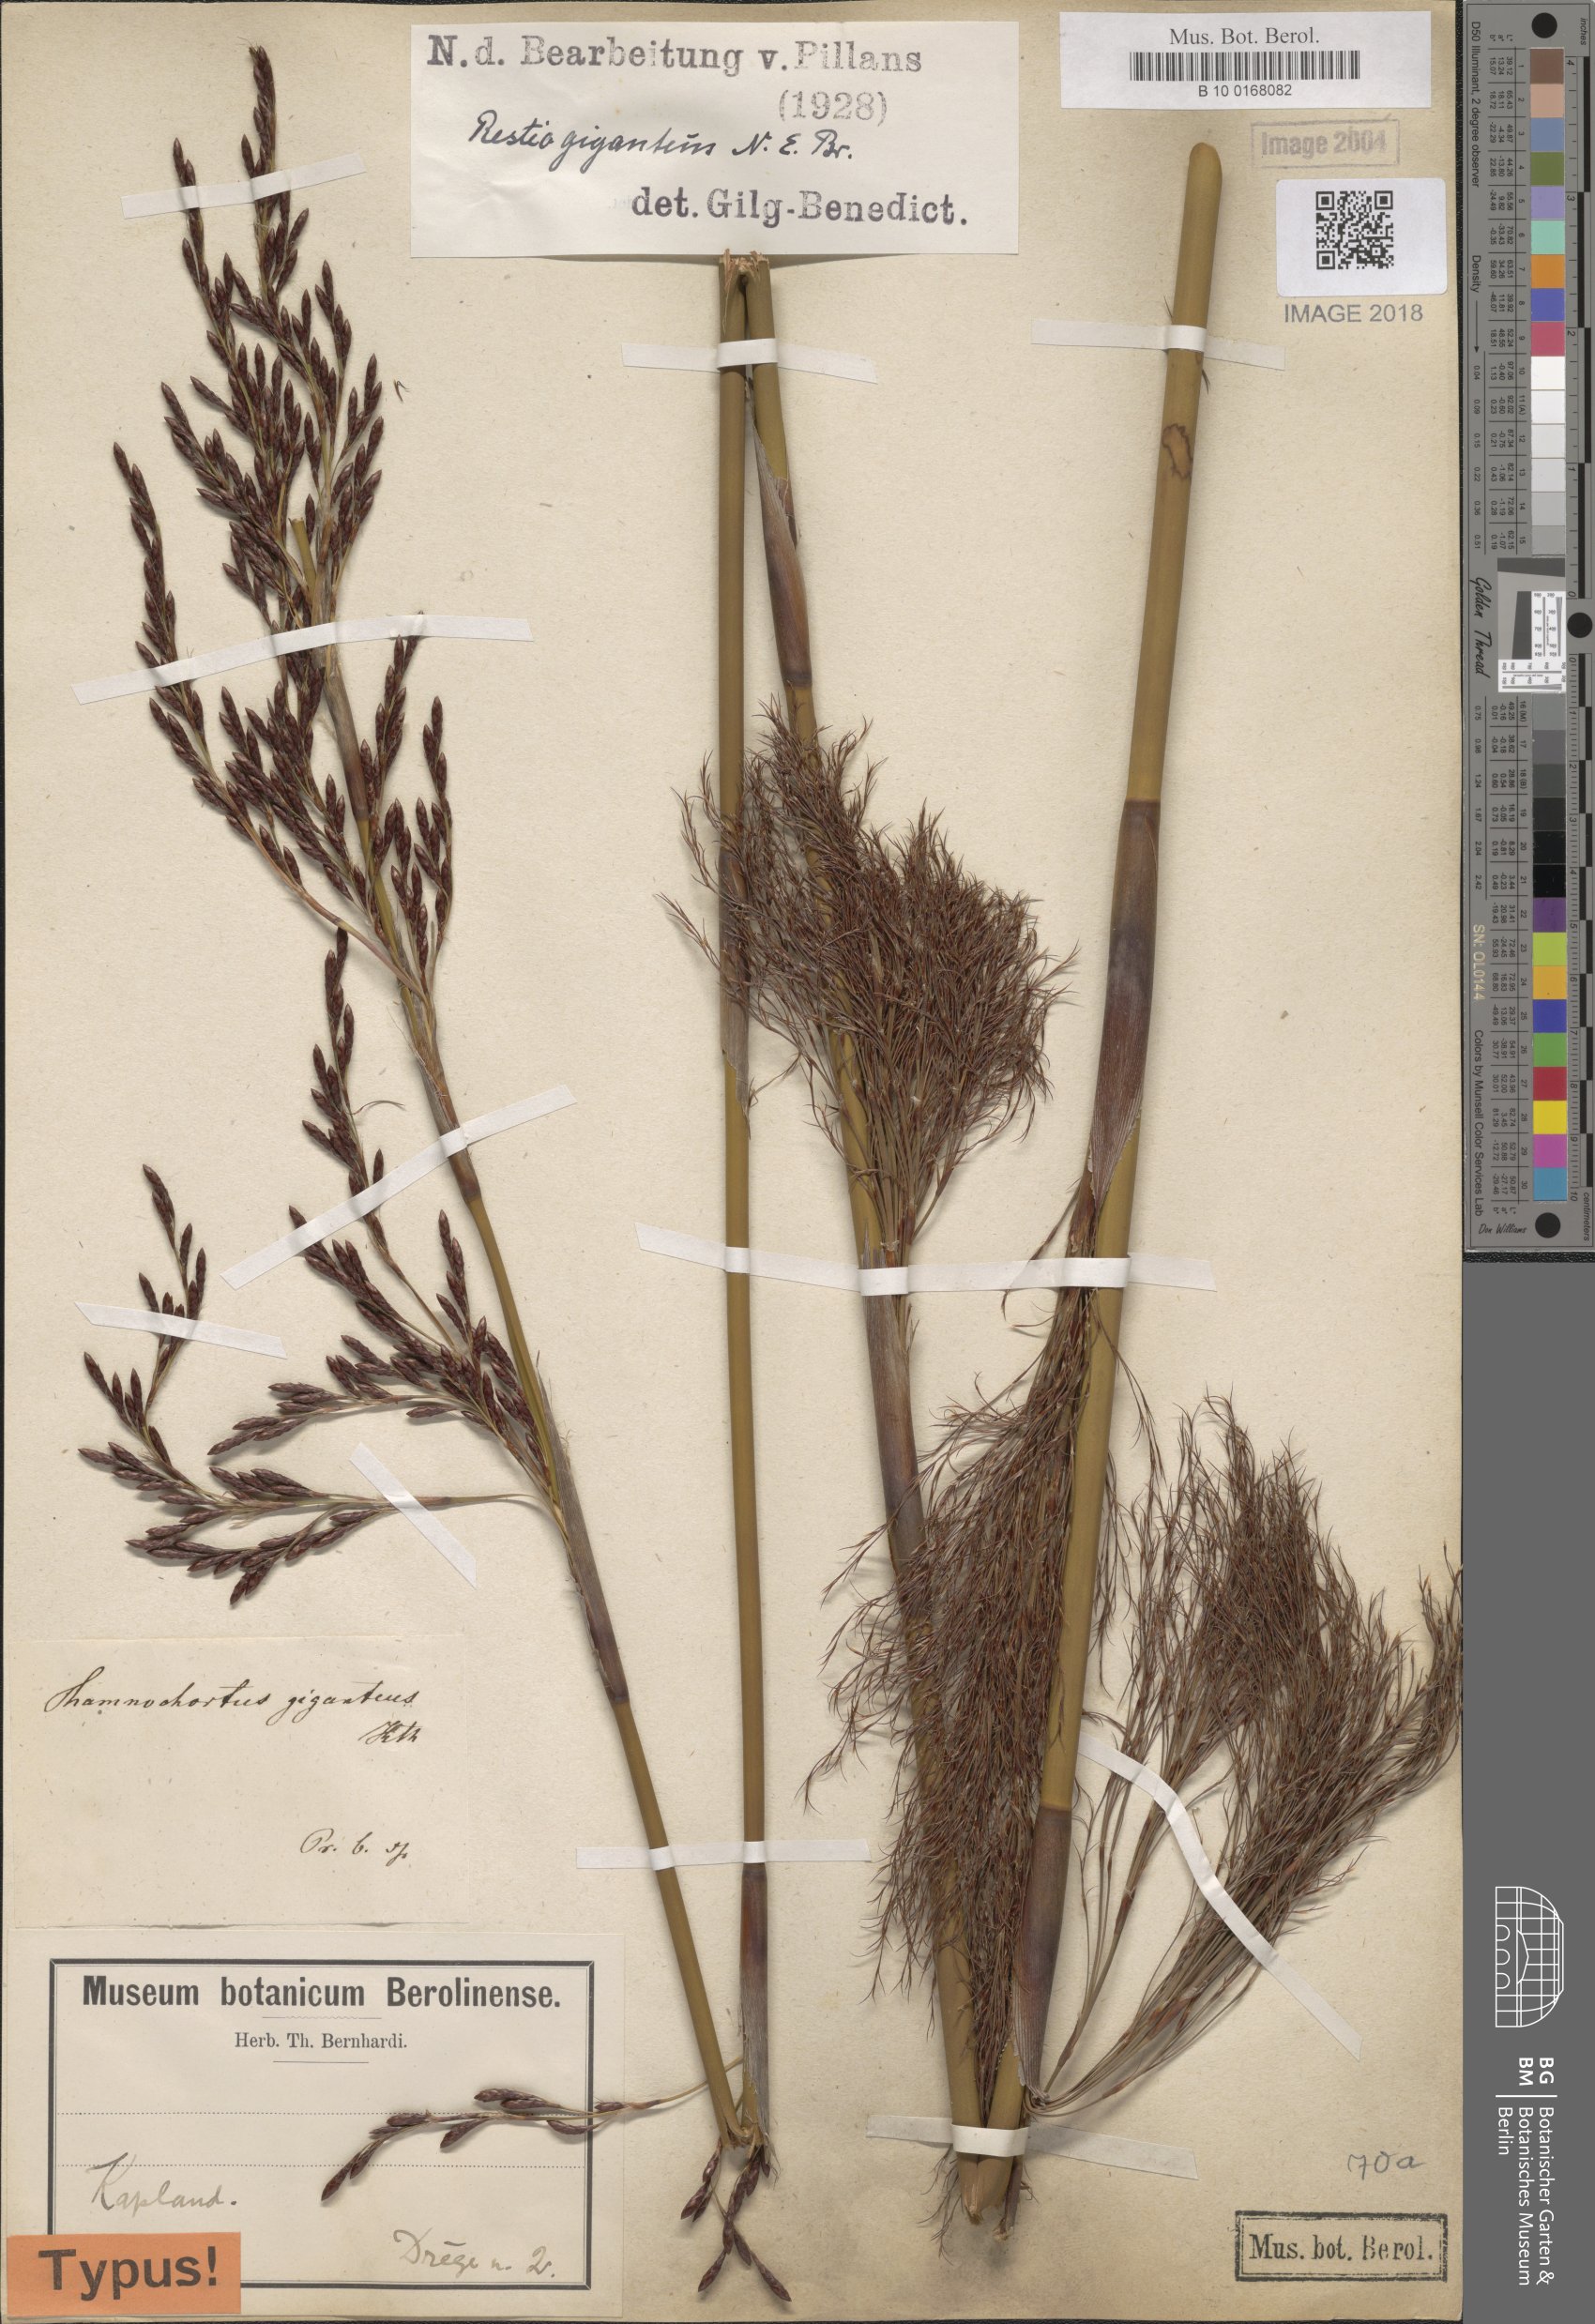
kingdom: Plantae
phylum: Tracheophyta
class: Liliopsida
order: Poales
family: Restionaceae
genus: Rhodocoma
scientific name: Rhodocoma gigantea
